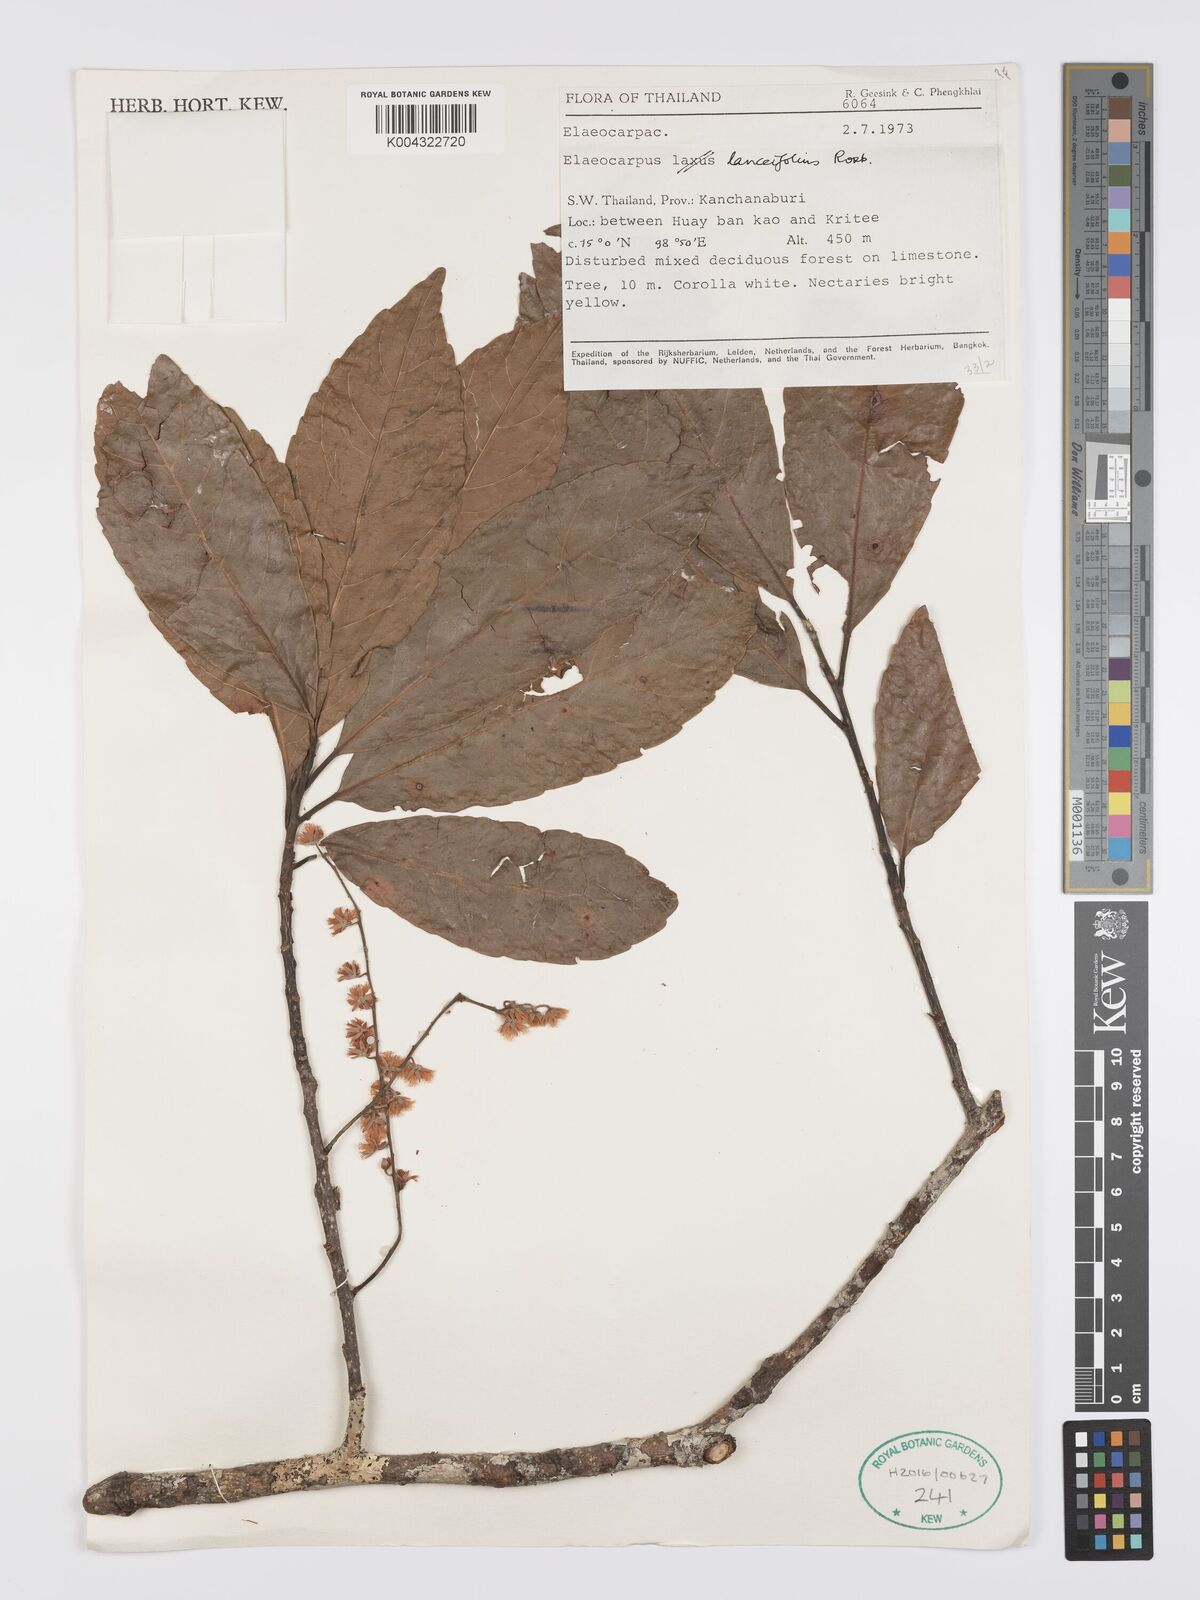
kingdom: Plantae
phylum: Tracheophyta
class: Magnoliopsida
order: Oxalidales
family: Elaeocarpaceae
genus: Elaeocarpus
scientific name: Elaeocarpus lanceifolius
